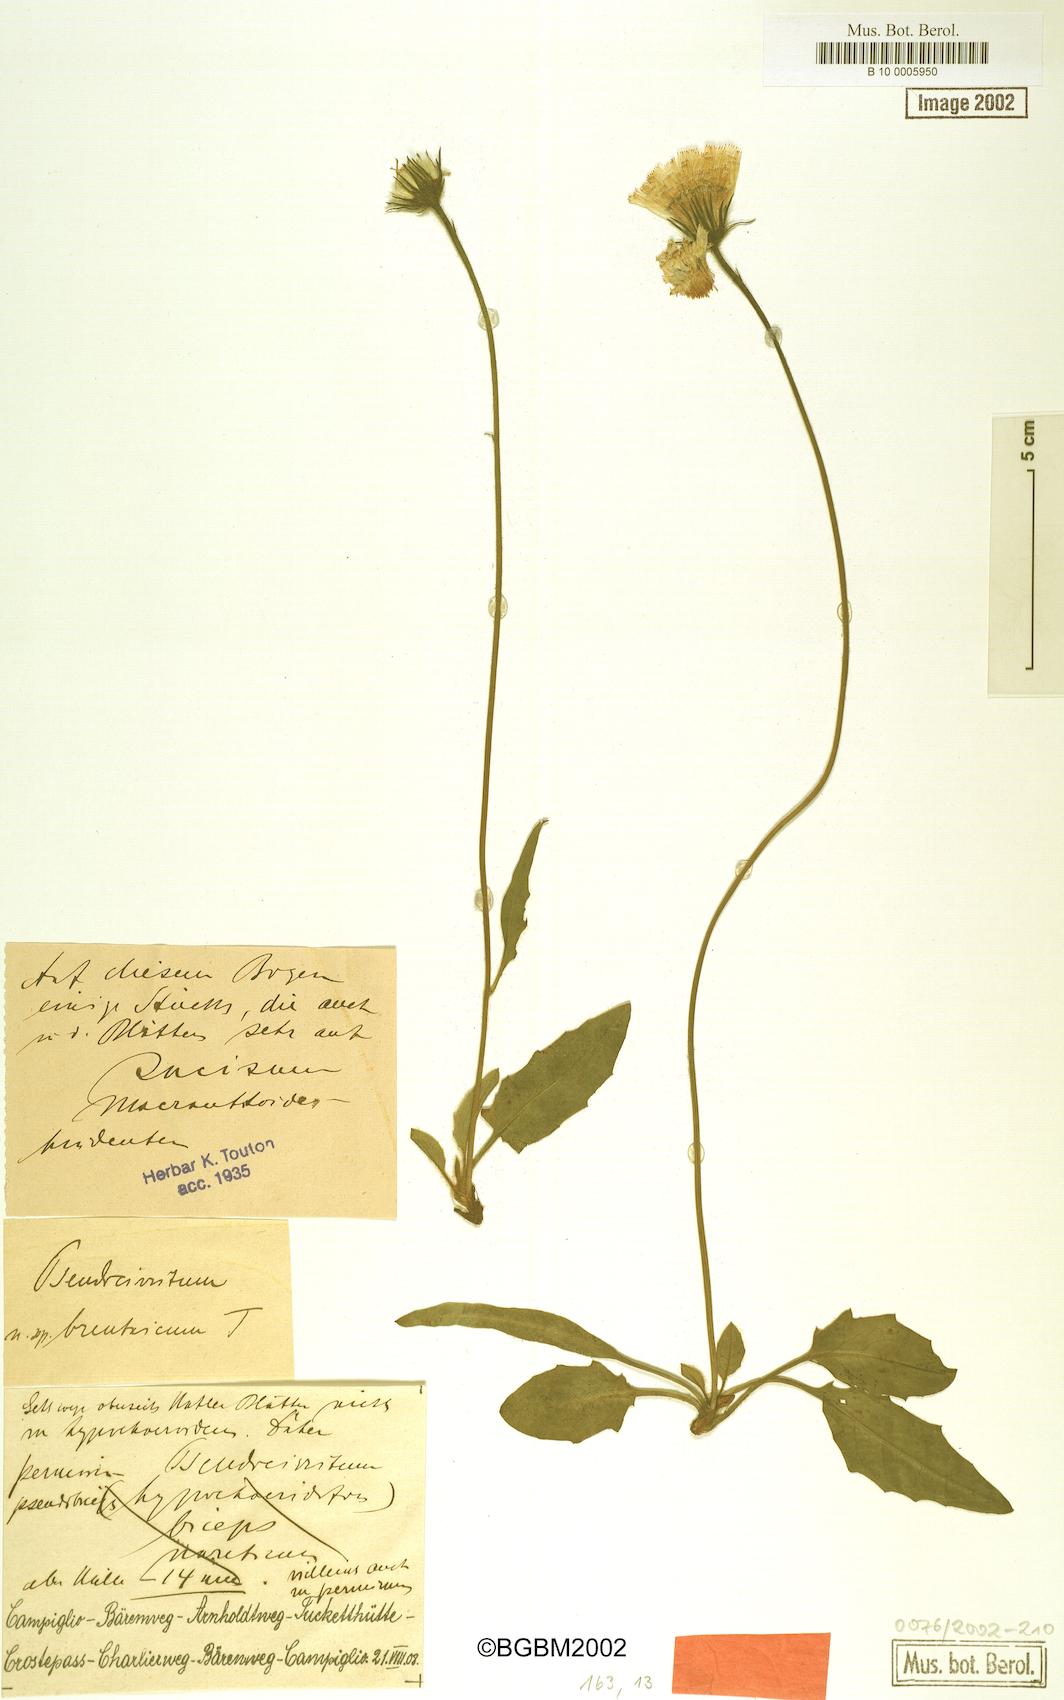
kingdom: Plantae
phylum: Tracheophyta
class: Magnoliopsida
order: Asterales
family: Asteraceae
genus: Hieracium
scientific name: Hieracium cirritum
